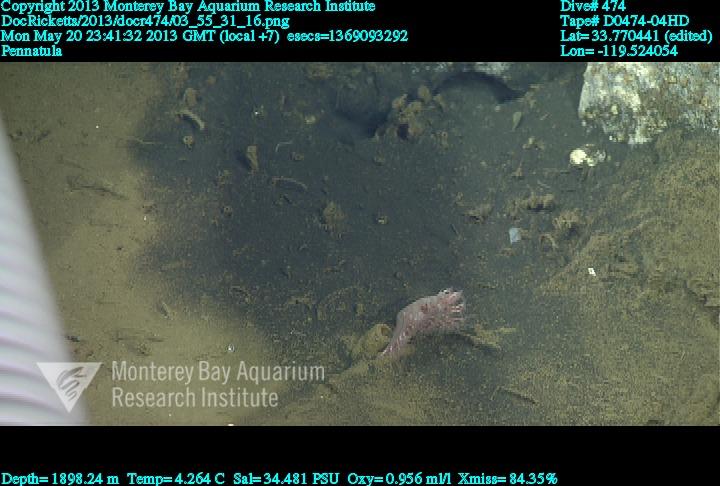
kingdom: Animalia
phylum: Cnidaria
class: Anthozoa
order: Scleralcyonacea
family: Pennatulidae
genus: Pennatula
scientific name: Pennatula
